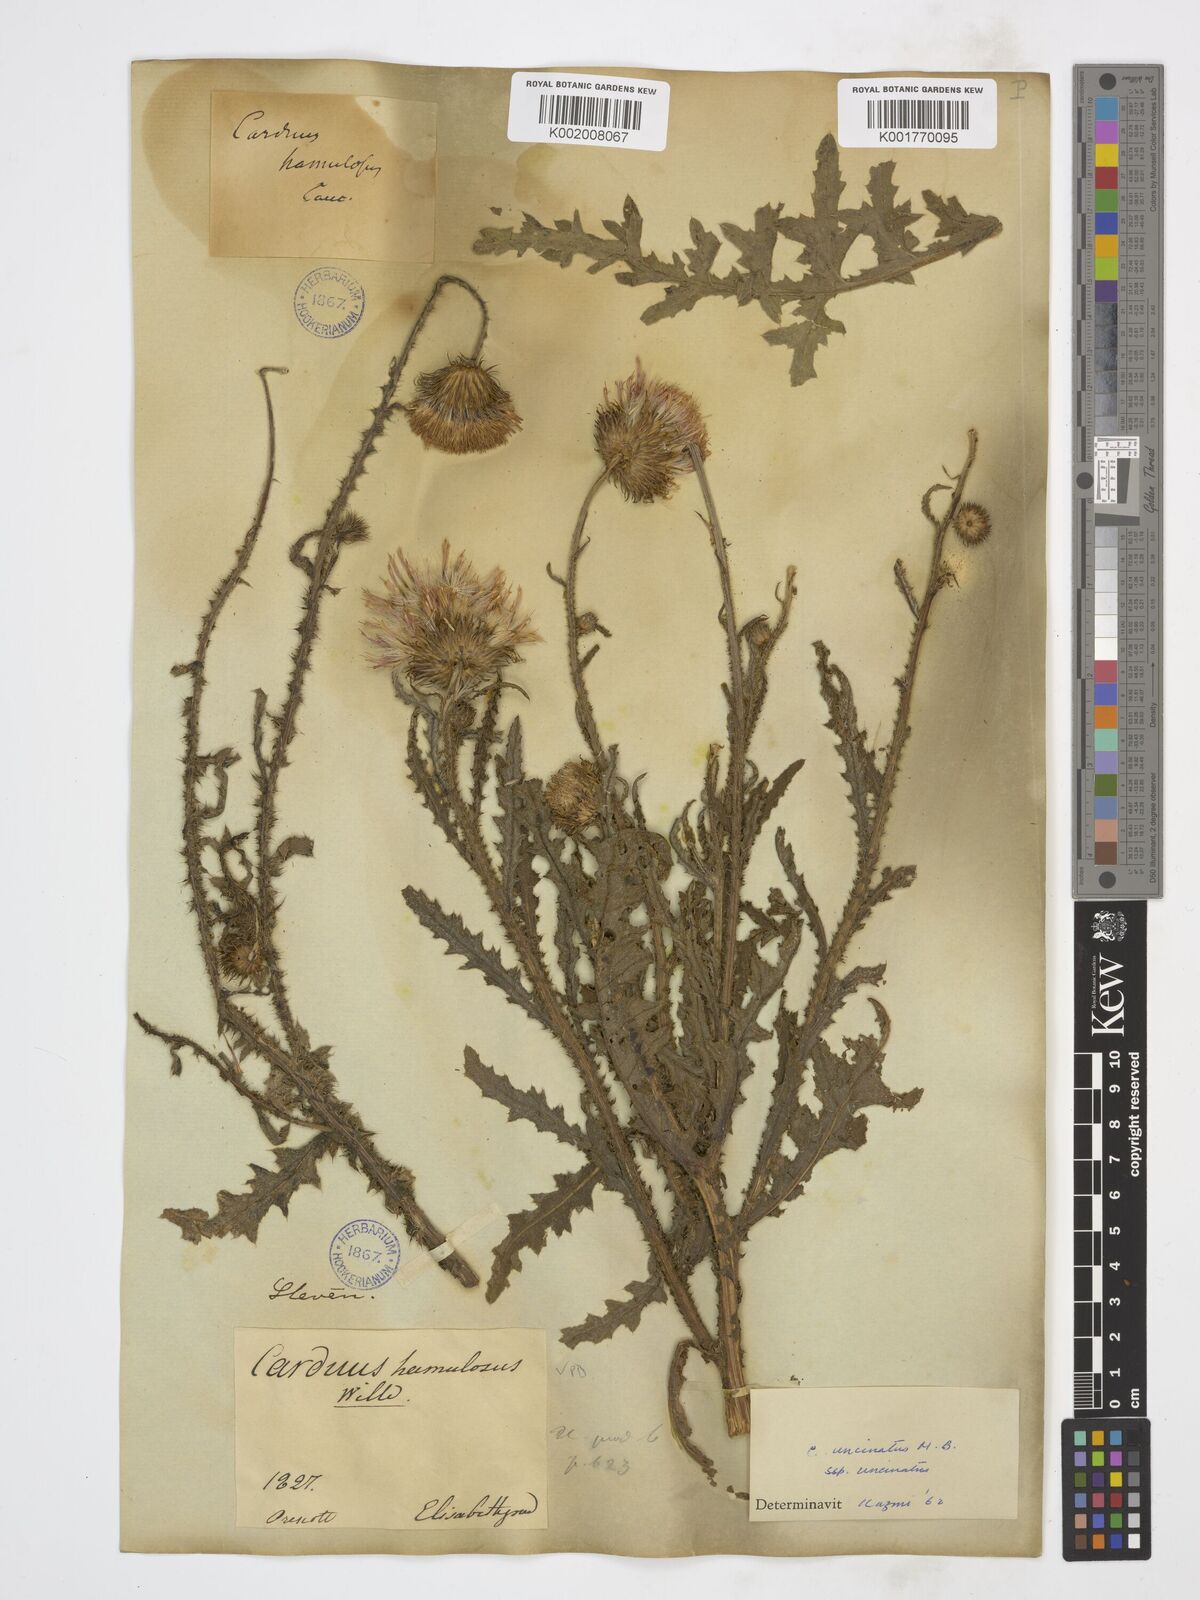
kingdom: Plantae
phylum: Tracheophyta
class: Magnoliopsida
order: Asterales
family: Asteraceae
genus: Carduus
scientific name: Carduus uncinatus
